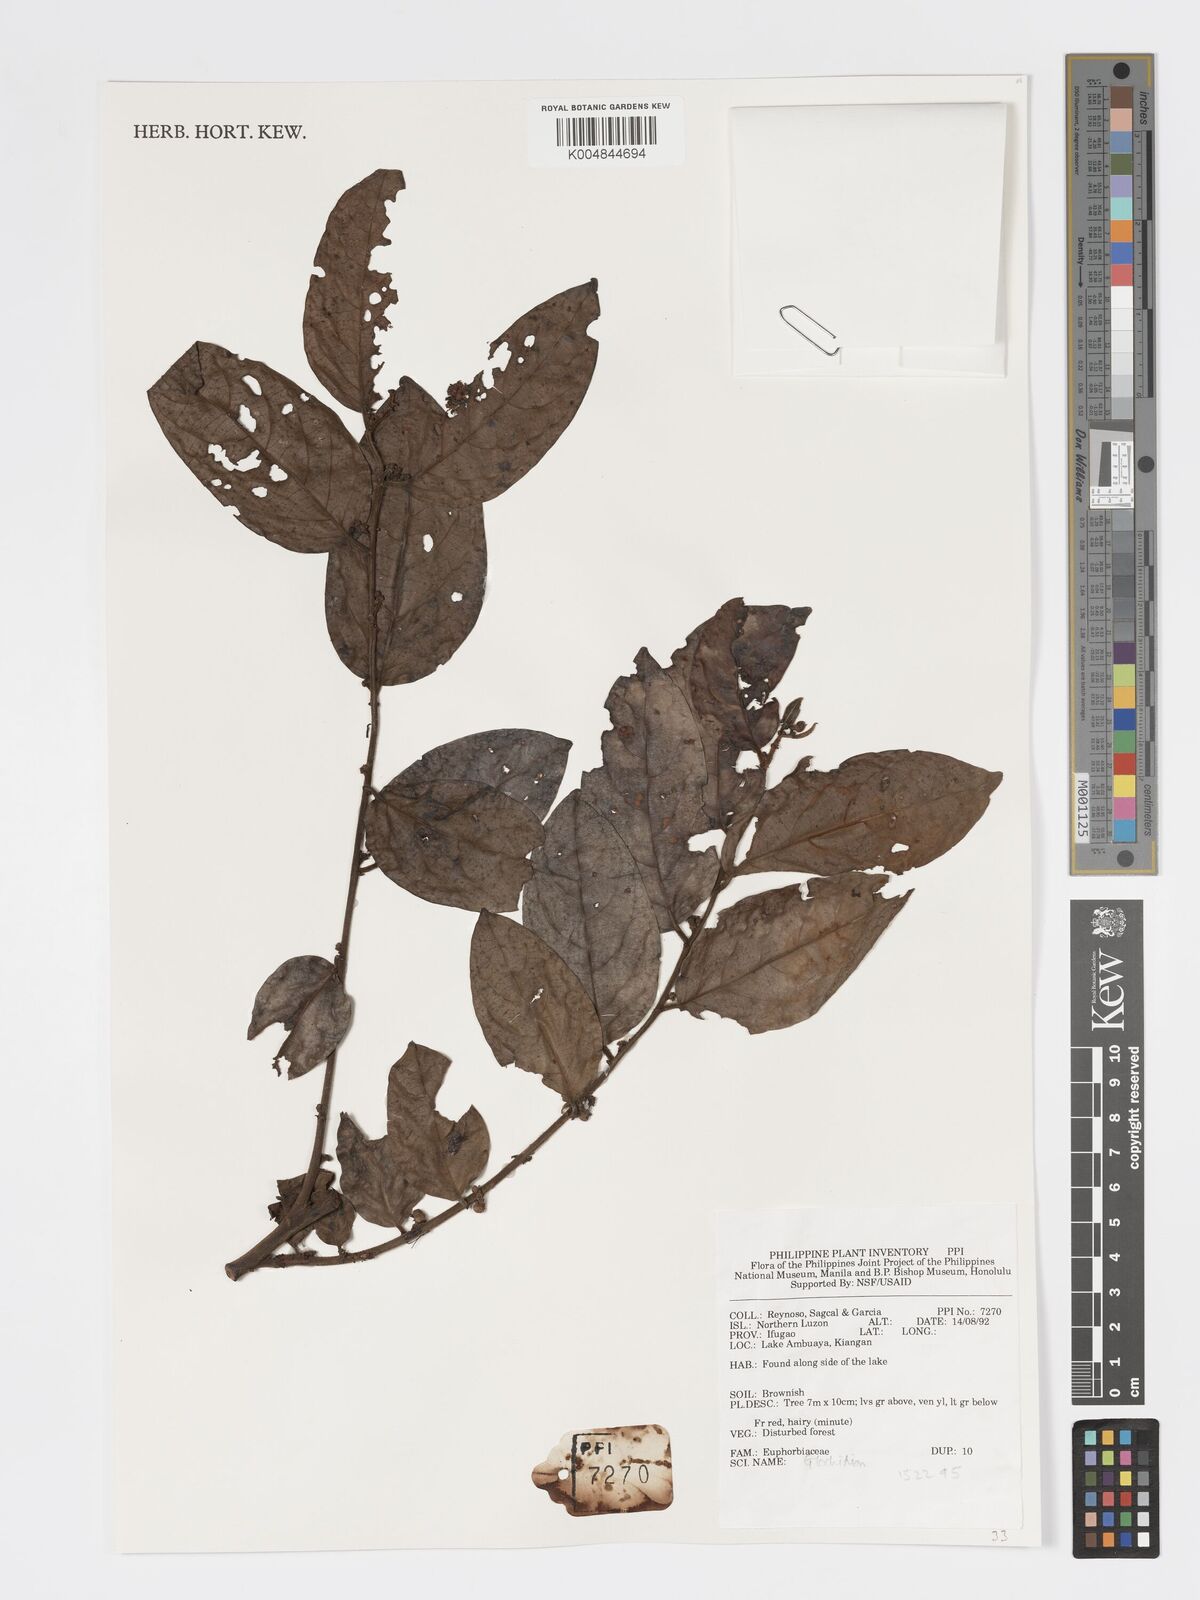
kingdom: Plantae
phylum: Tracheophyta
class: Magnoliopsida
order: Malpighiales
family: Phyllanthaceae
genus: Glochidion
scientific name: Glochidion
